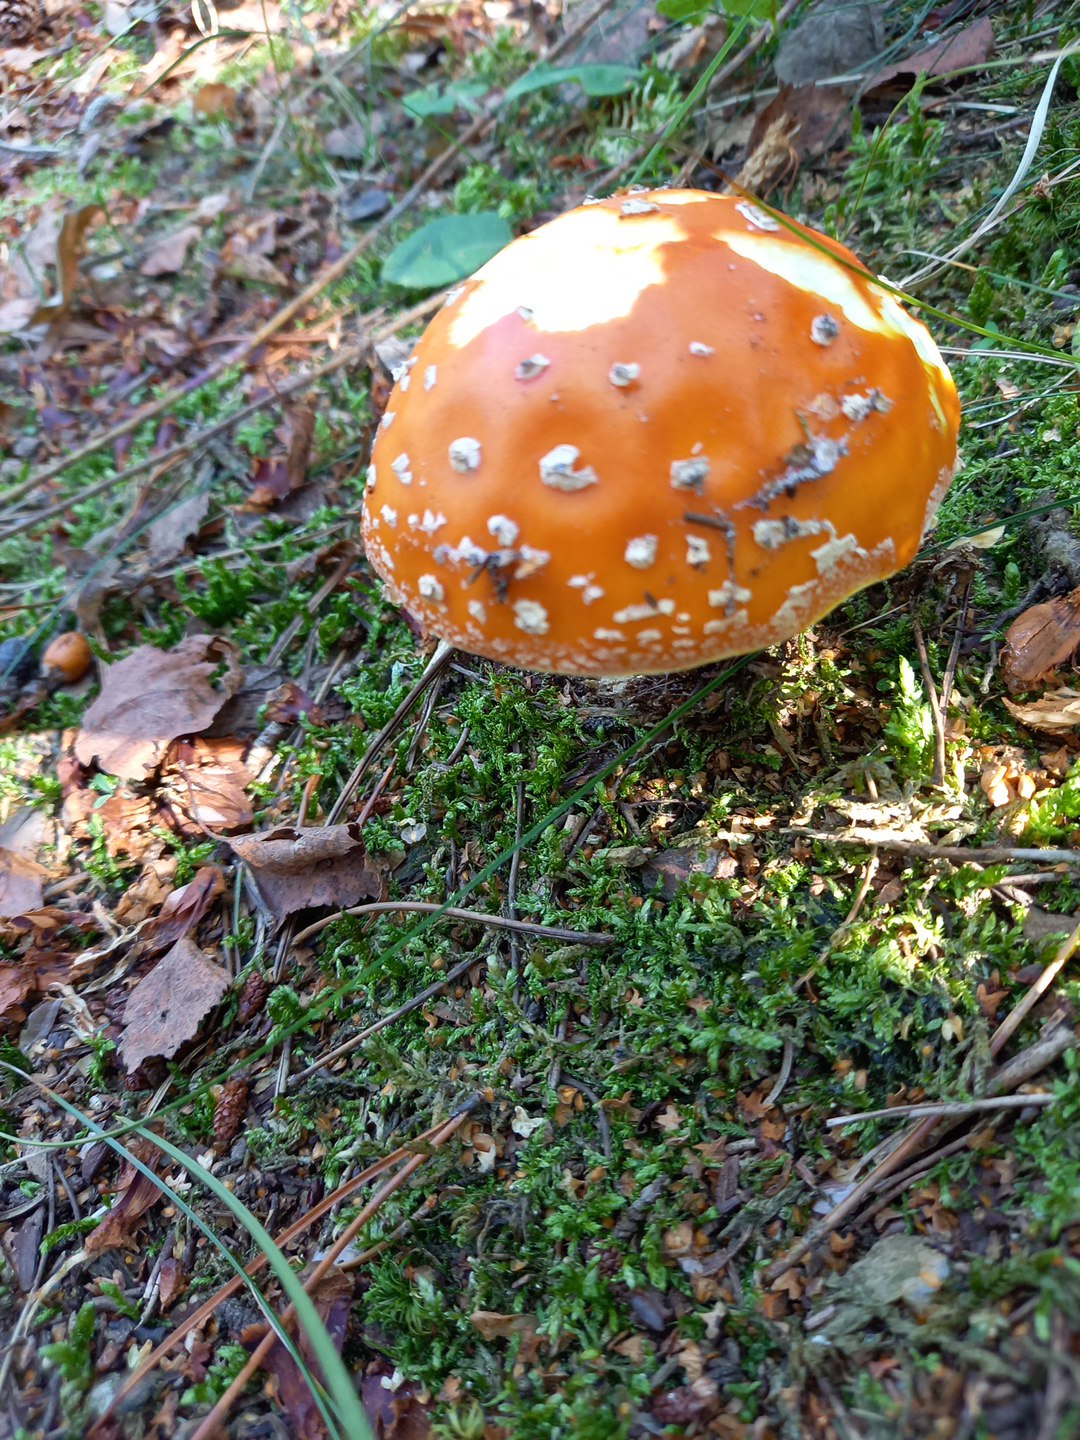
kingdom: Fungi
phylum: Basidiomycota
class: Agaricomycetes
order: Agaricales
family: Amanitaceae
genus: Amanita
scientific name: Amanita muscaria
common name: rød fluesvamp
